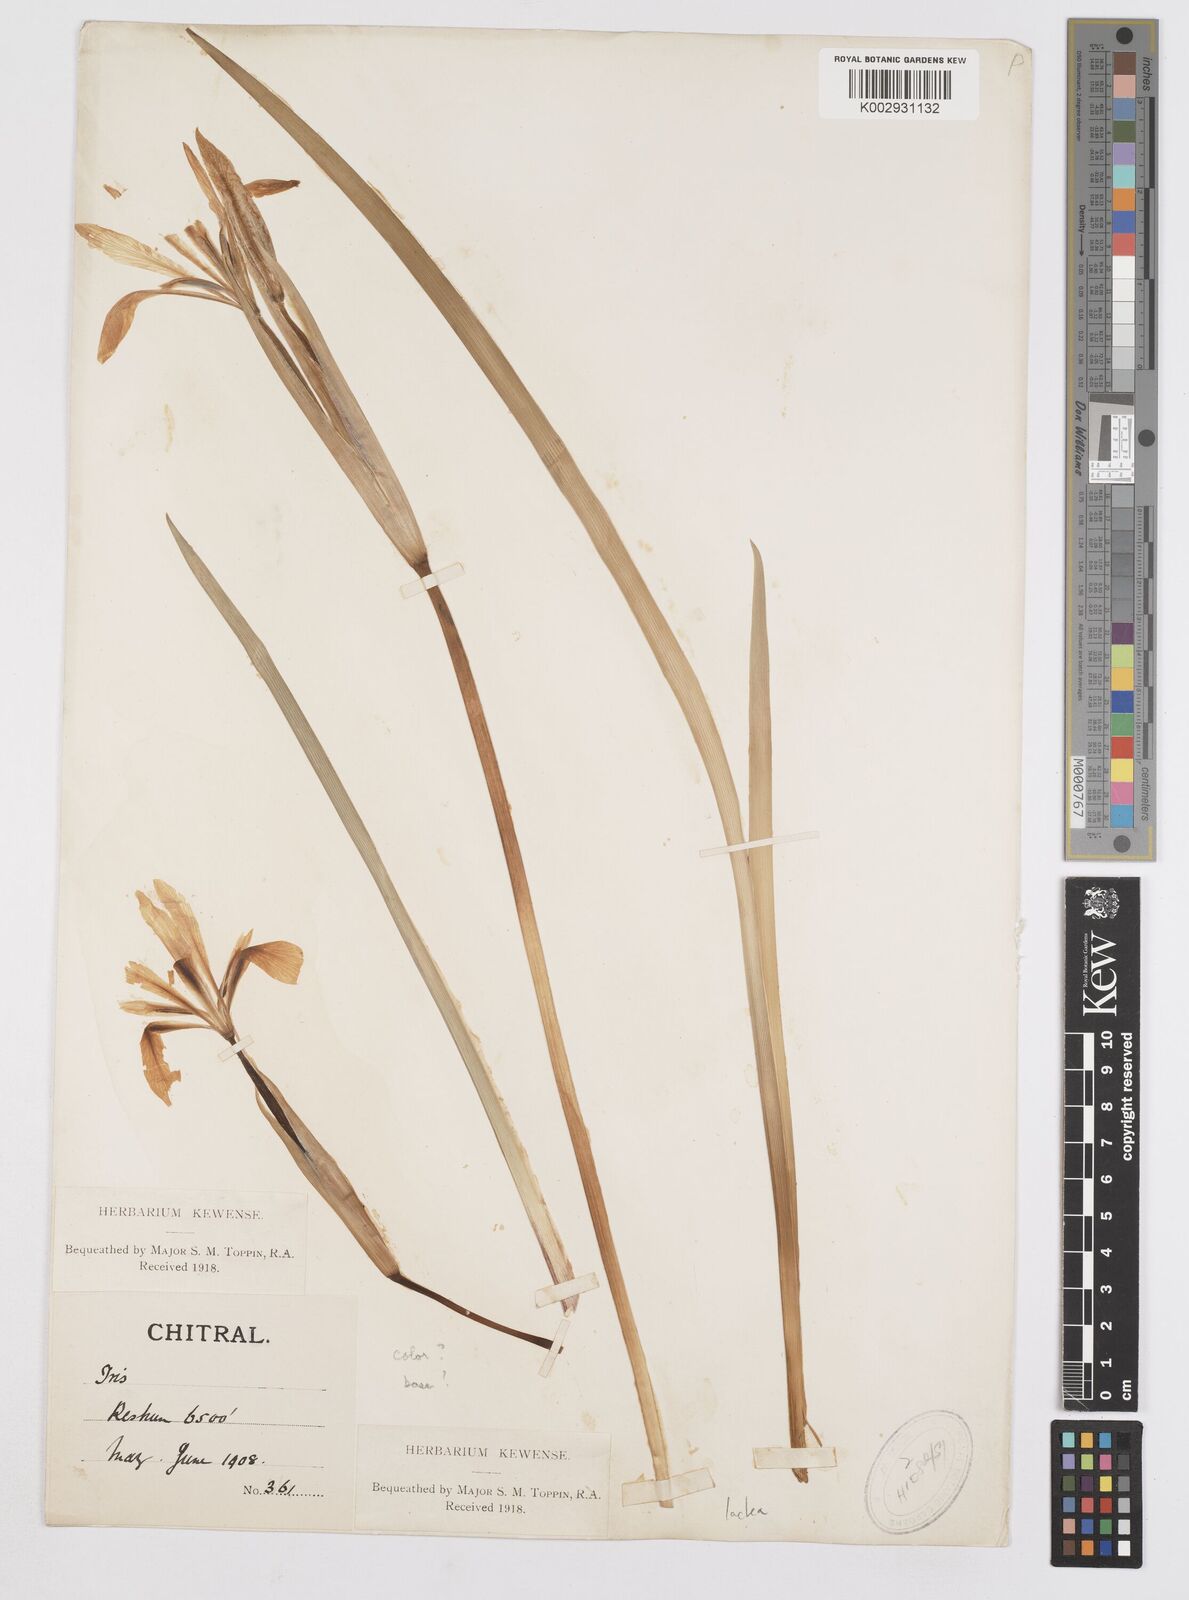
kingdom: Plantae
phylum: Tracheophyta
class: Liliopsida
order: Asparagales
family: Iridaceae
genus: Iris
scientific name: Iris lactea
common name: White-flower chinese iris
